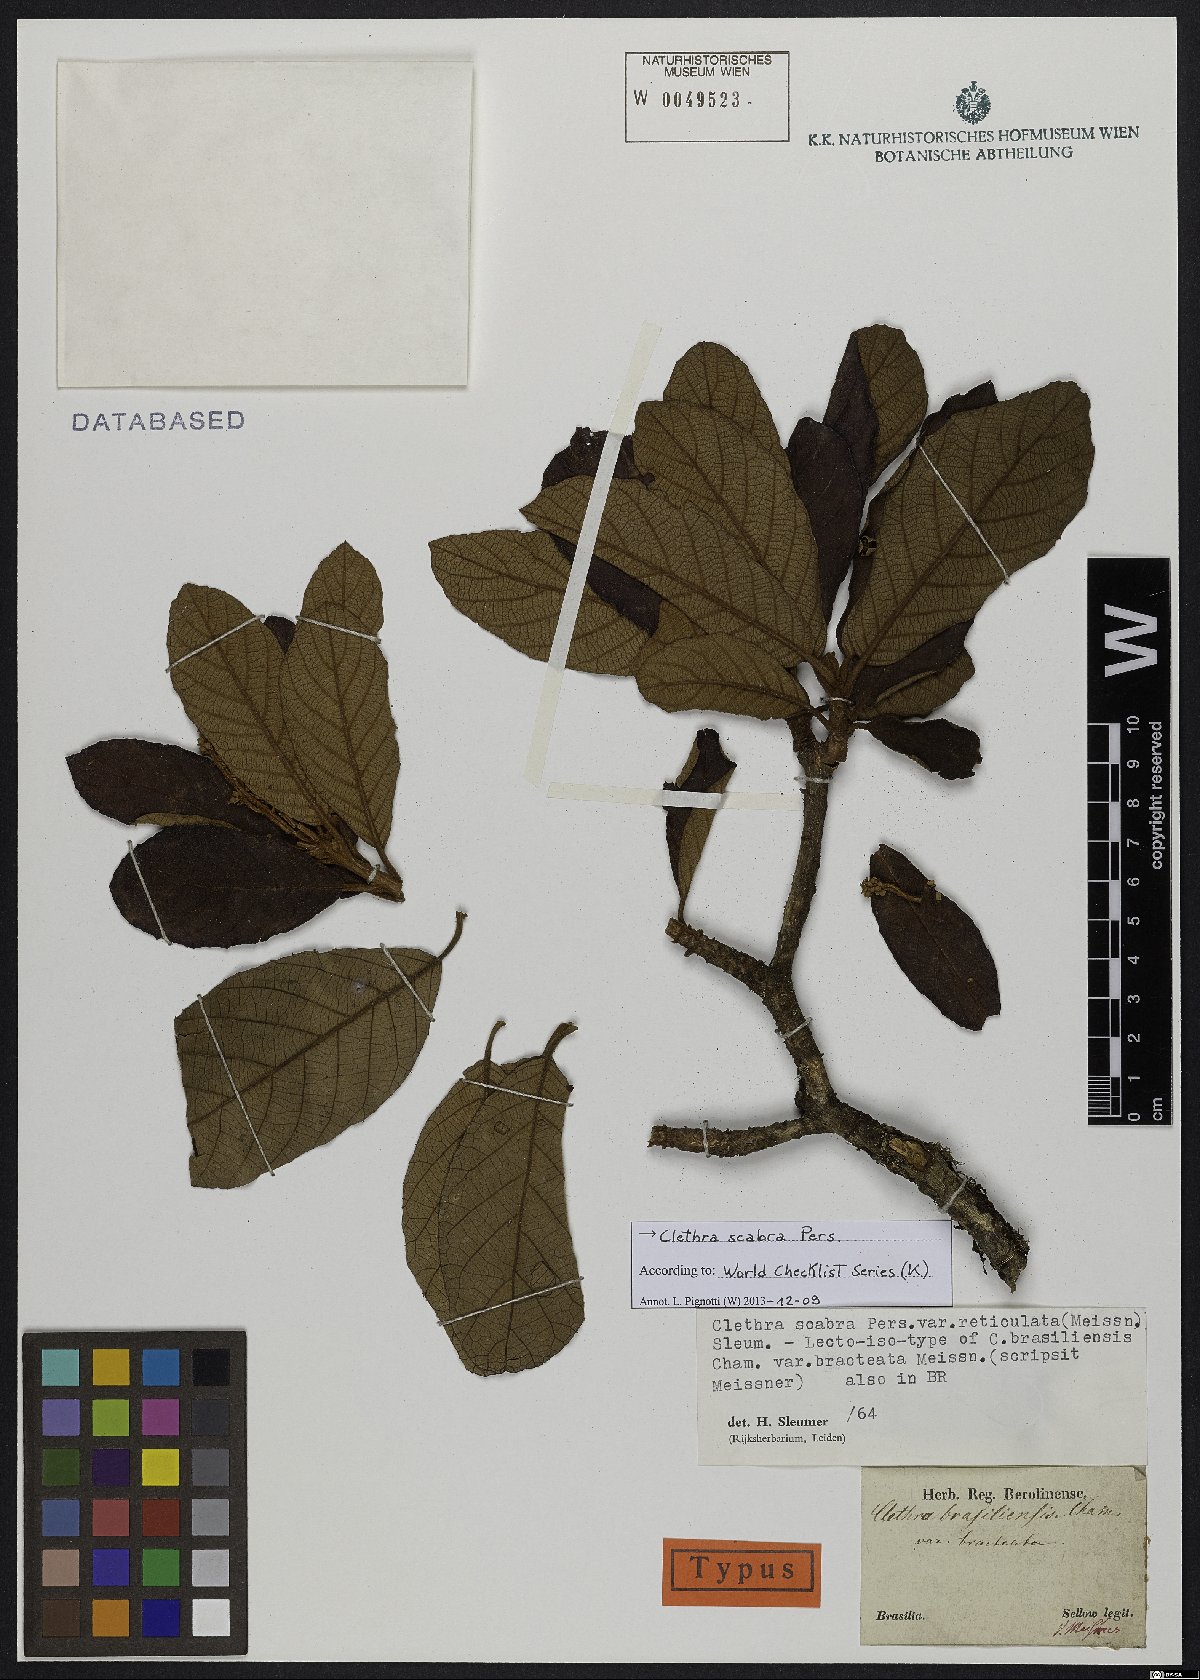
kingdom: Plantae
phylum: Tracheophyta
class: Magnoliopsida
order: Ericales
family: Clethraceae
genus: Clethra
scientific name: Clethra scabra
